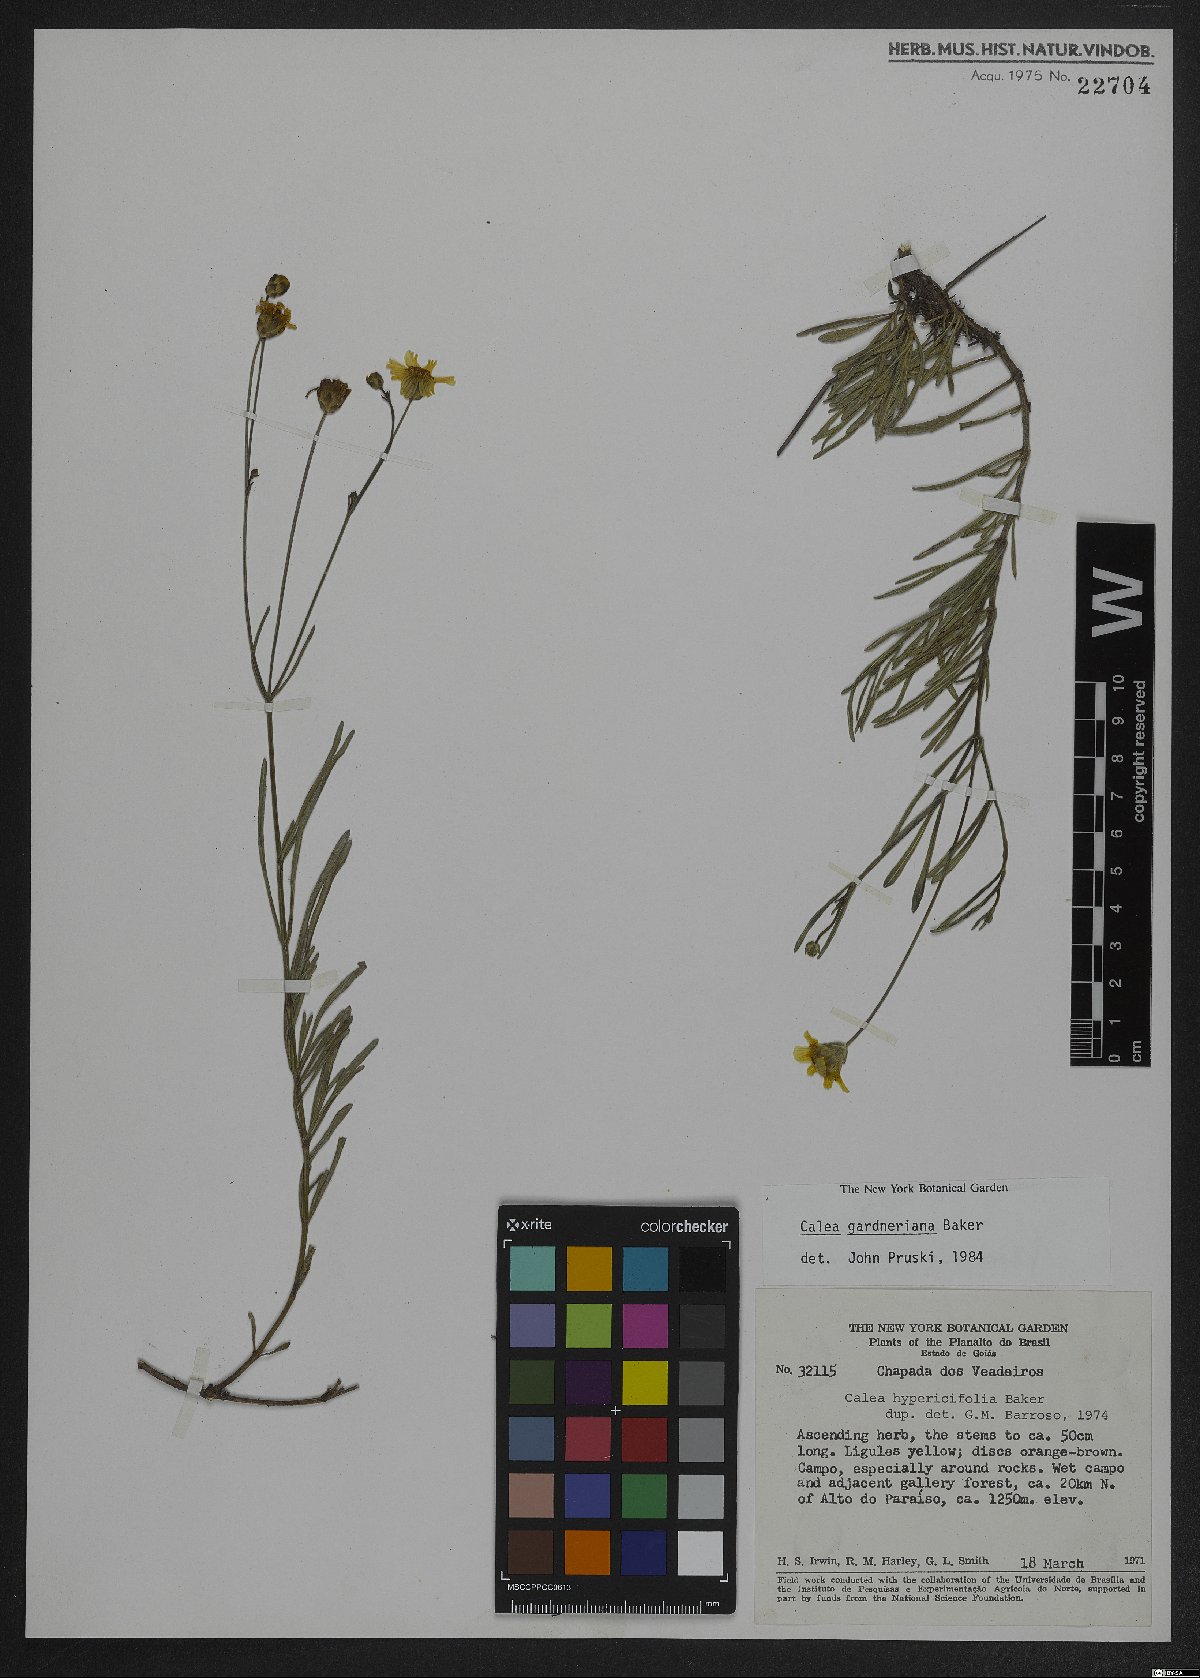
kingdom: Plantae
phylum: Tracheophyta
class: Magnoliopsida
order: Asterales
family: Asteraceae
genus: Calea
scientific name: Calea gardneriana
